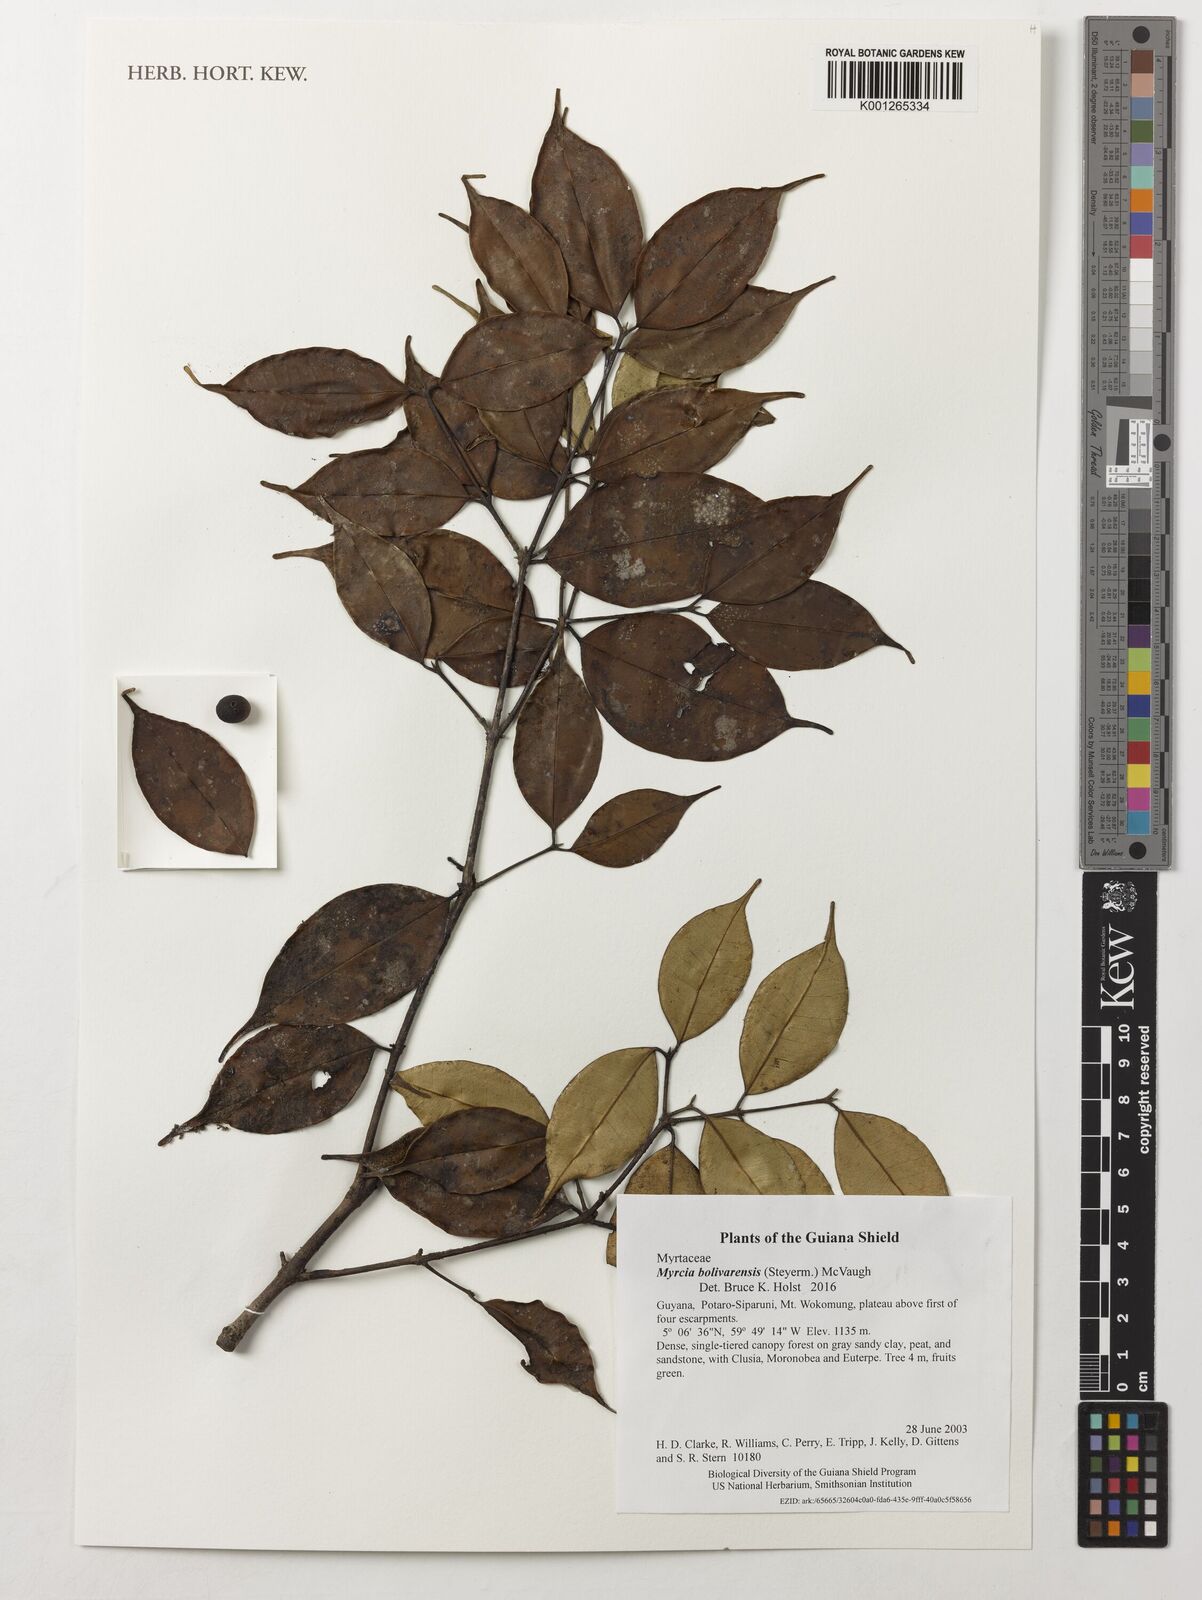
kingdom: Plantae
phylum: Tracheophyta
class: Magnoliopsida
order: Myrtales
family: Myrtaceae
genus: Myrcia
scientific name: Myrcia bolivarensis
